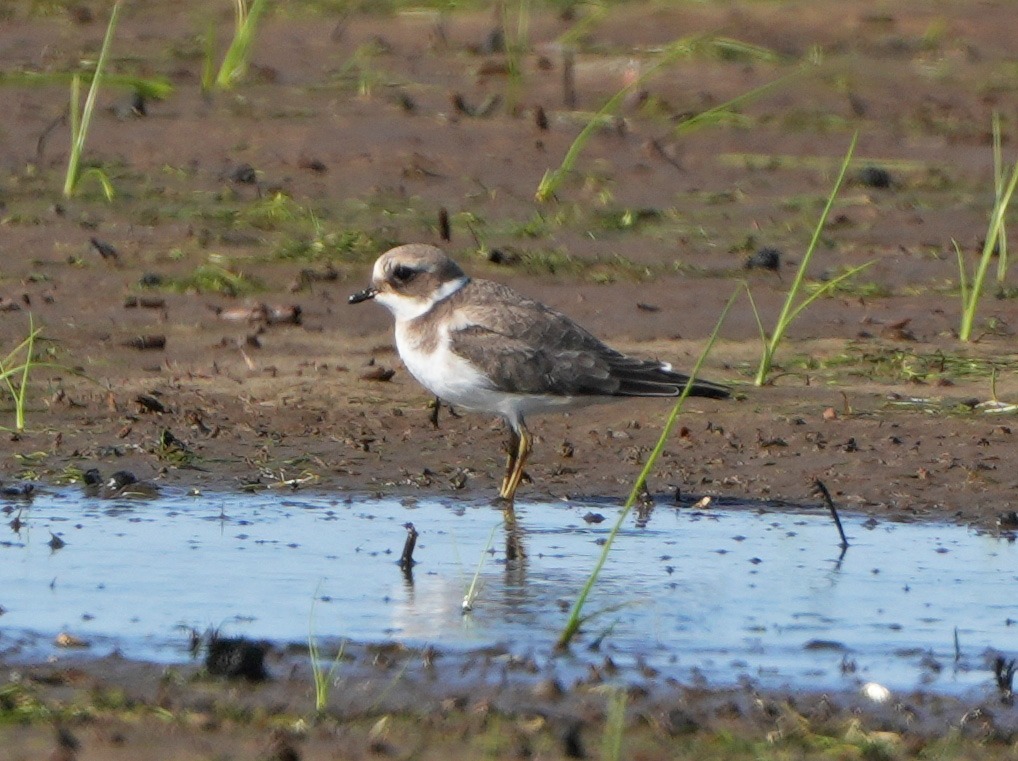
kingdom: Animalia
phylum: Chordata
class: Aves
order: Charadriiformes
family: Charadriidae
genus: Charadrius
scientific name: Charadrius hiaticula
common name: Stor præstekrave
